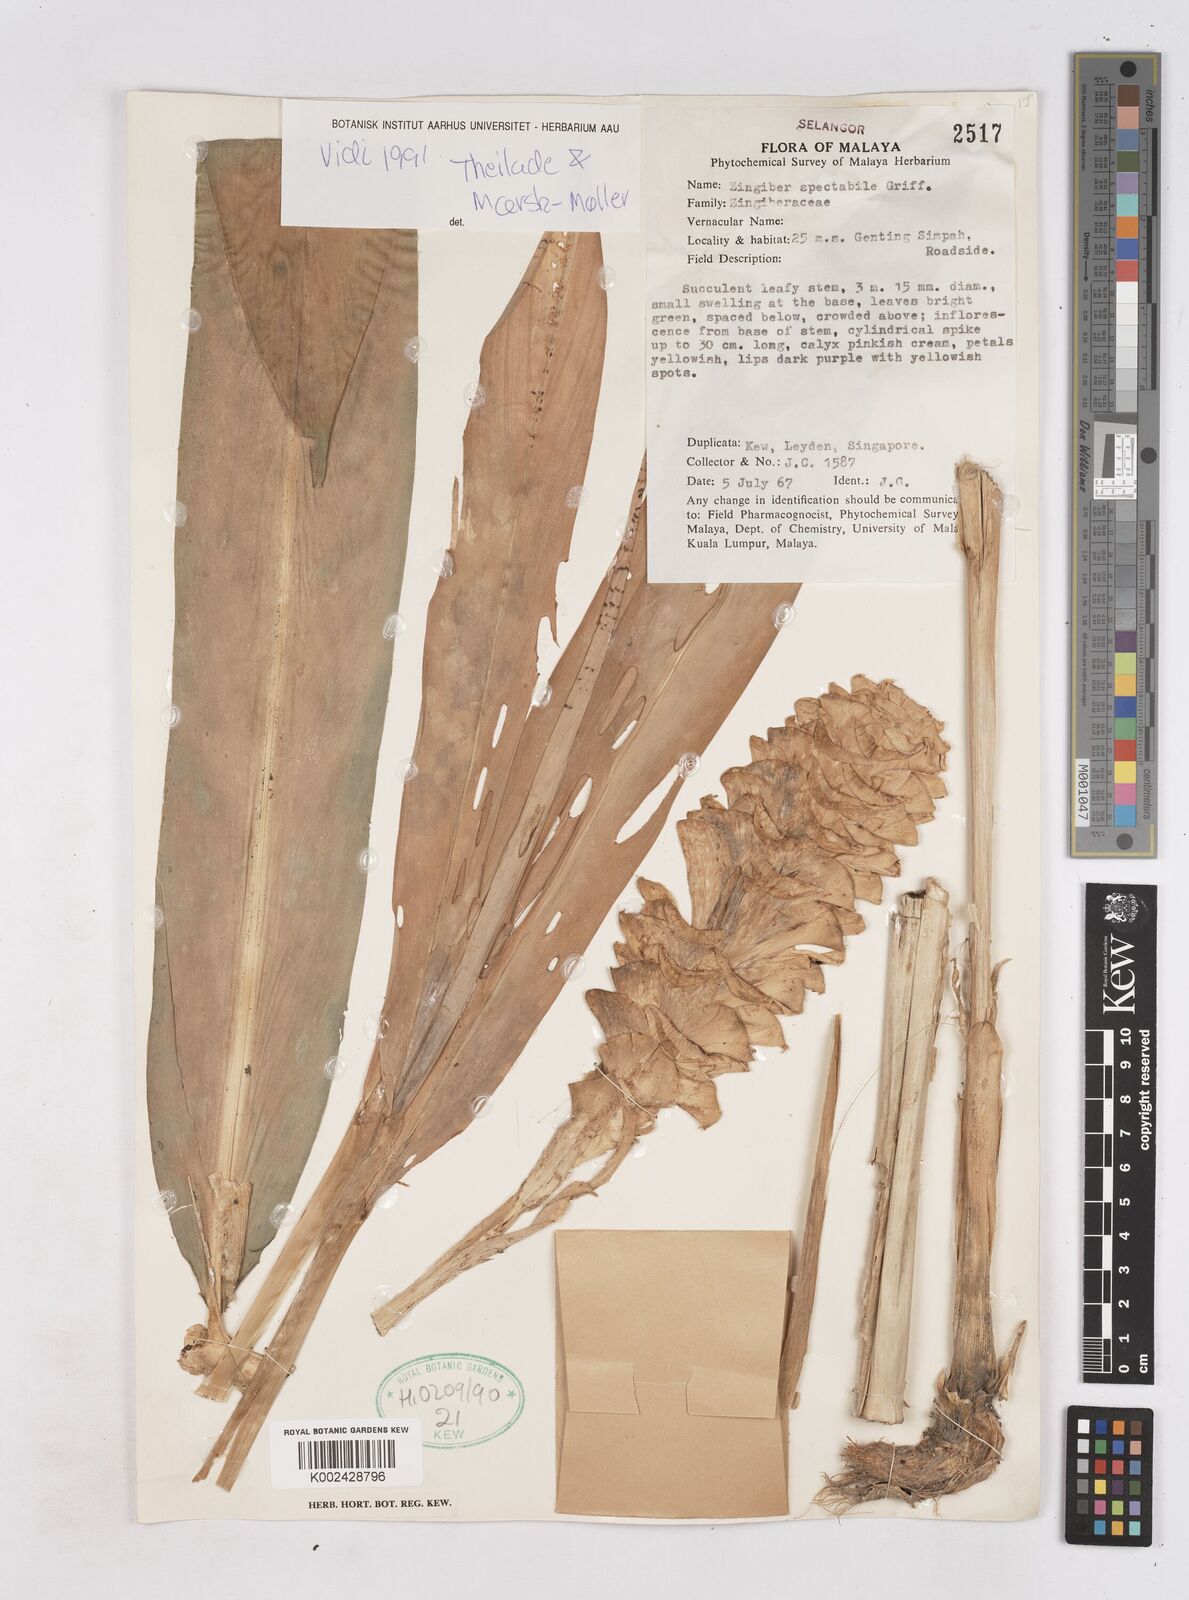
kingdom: Plantae
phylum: Tracheophyta
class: Liliopsida
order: Zingiberales
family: Zingiberaceae
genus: Zingiber
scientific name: Zingiber spectabile
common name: Beehive ginger
